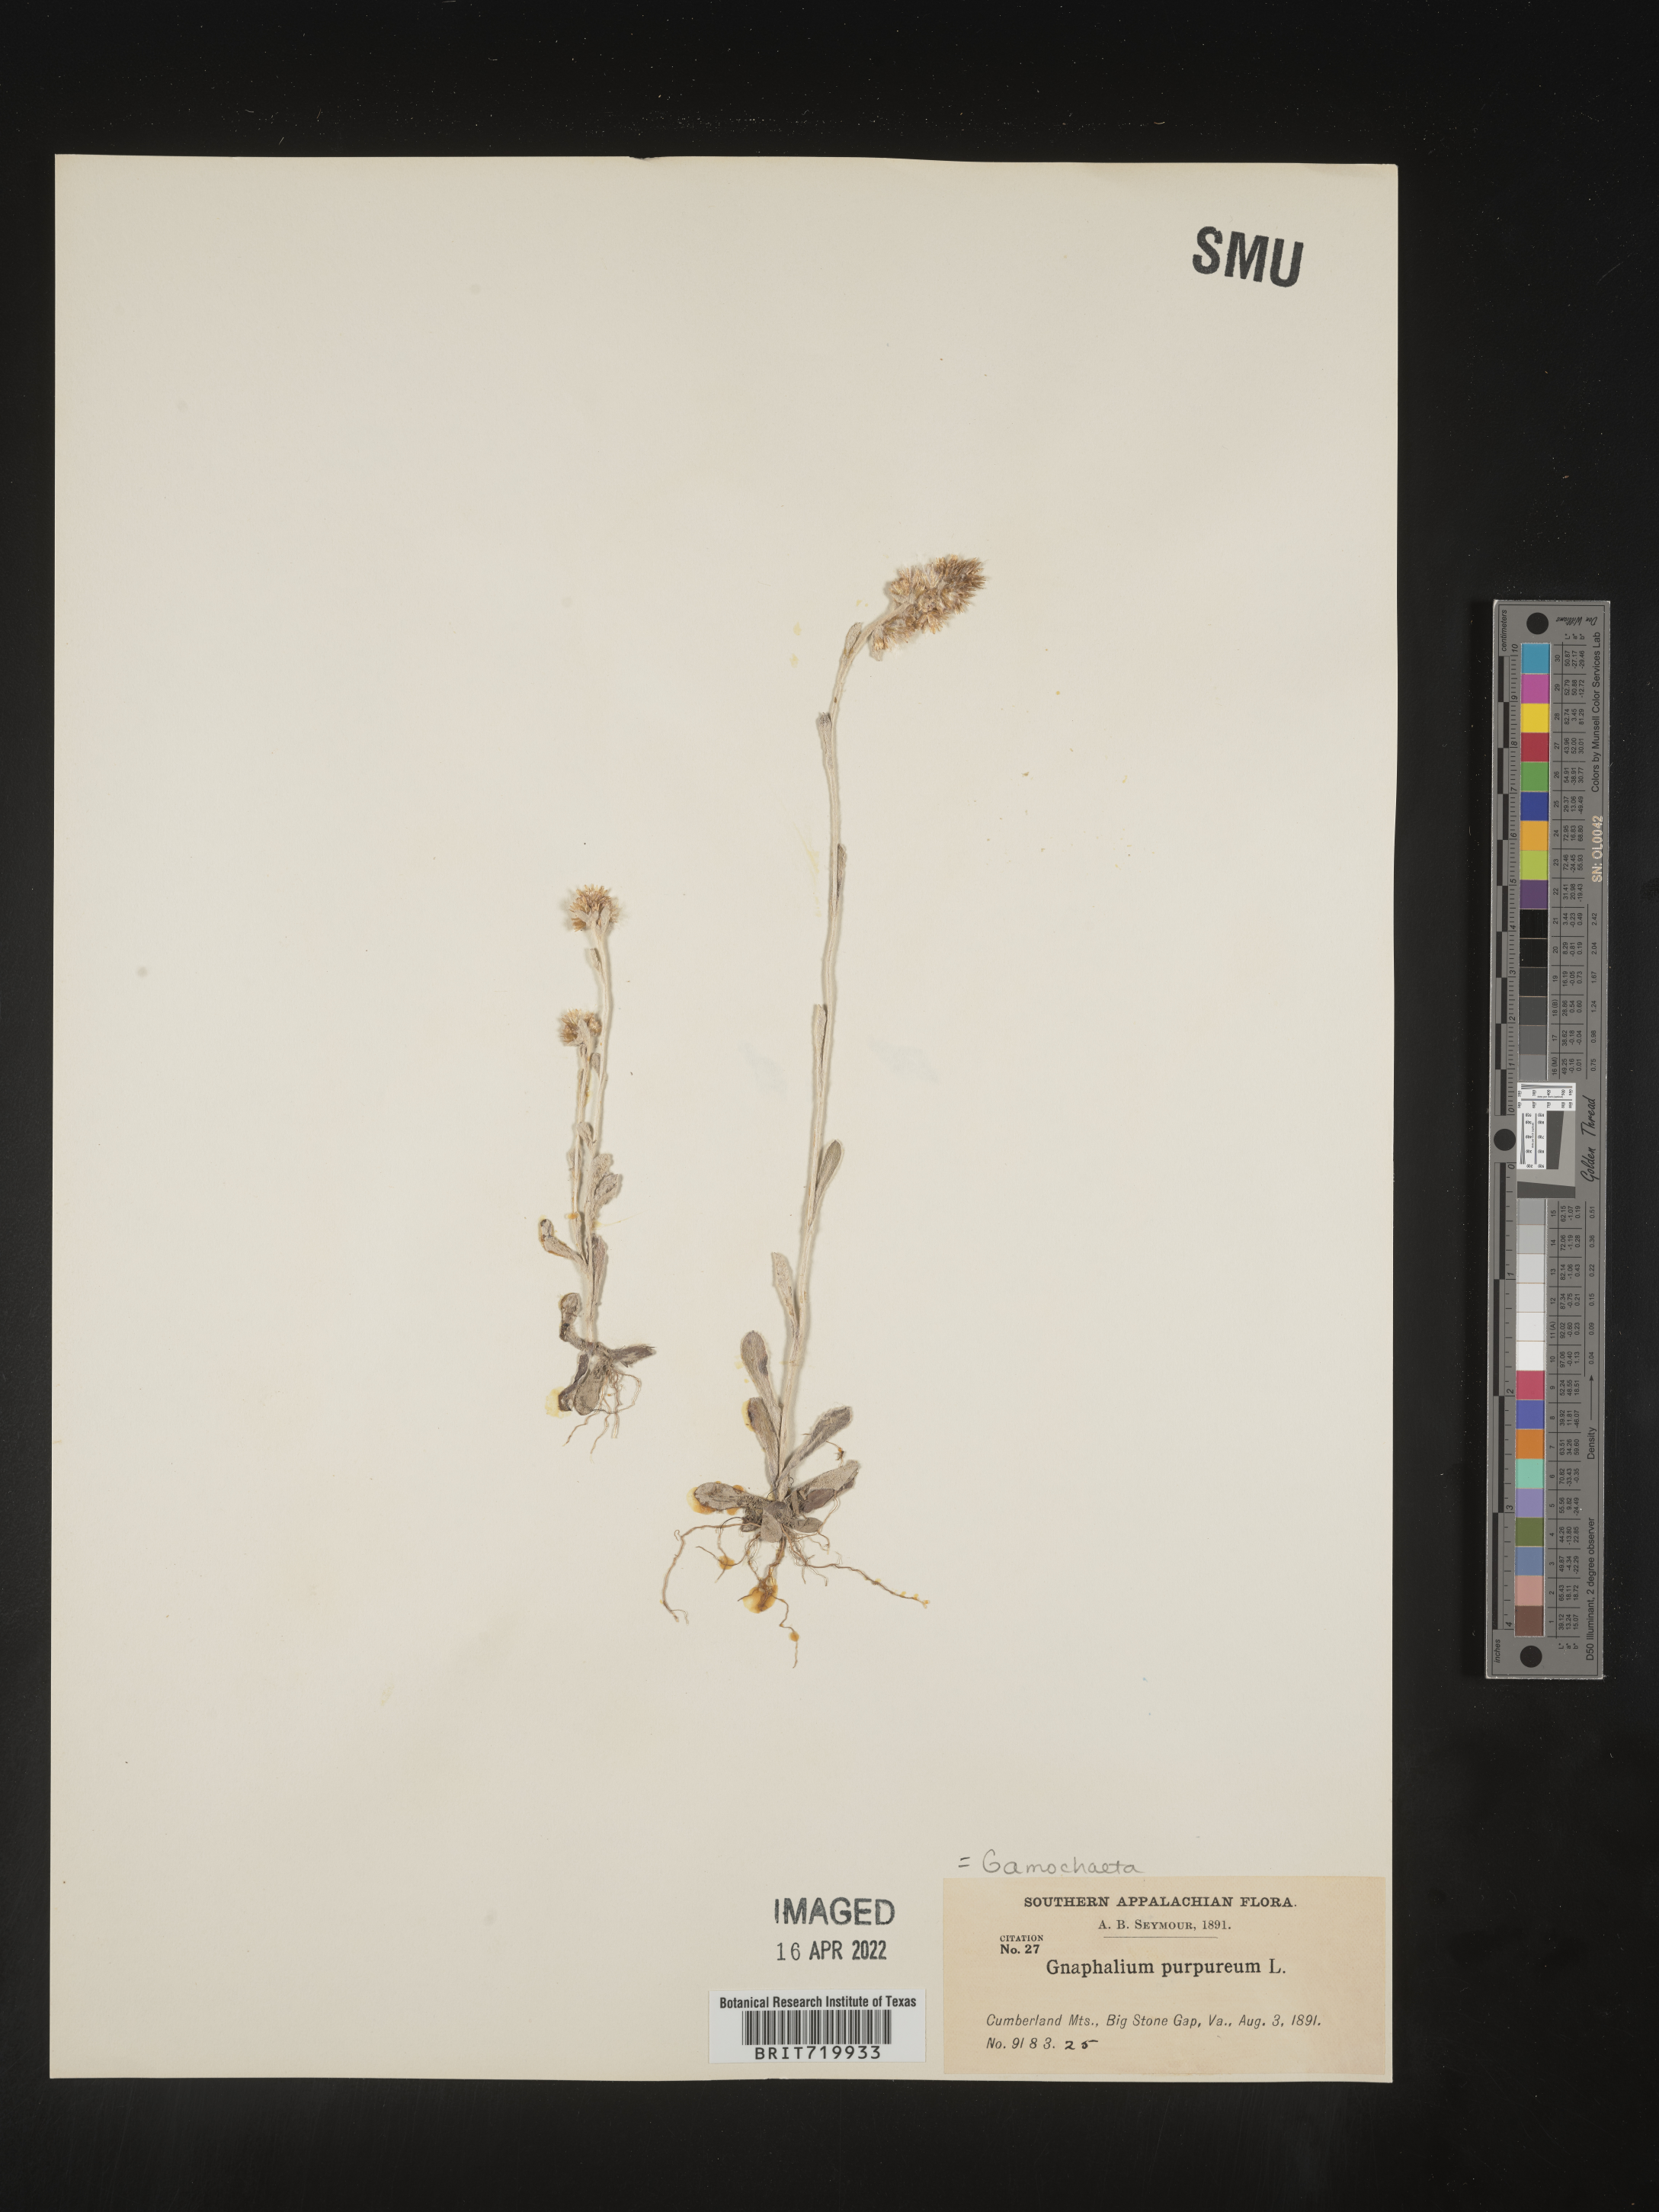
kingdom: Plantae
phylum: Tracheophyta
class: Magnoliopsida
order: Asterales
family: Asteraceae
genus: Gamochaeta
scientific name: Gamochaeta purpurea
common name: Purple cudweed
